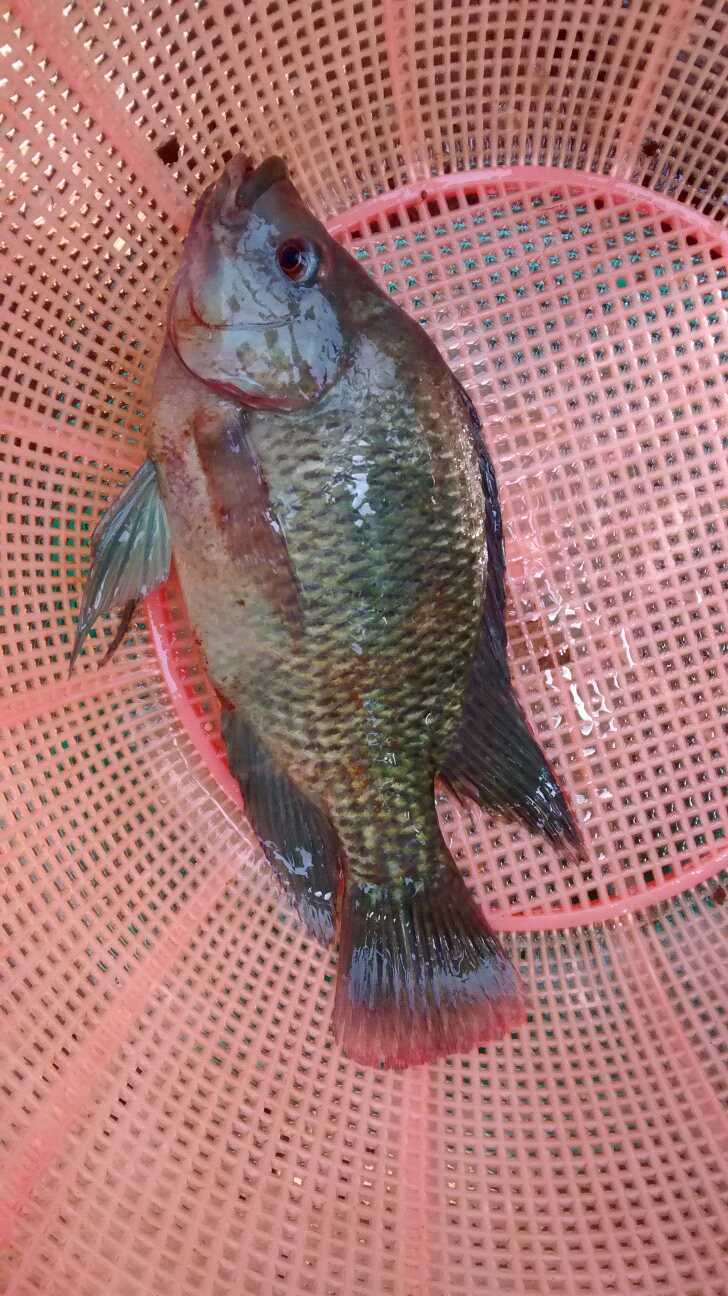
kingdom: Animalia
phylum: Chordata
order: Perciformes
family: Cichlidae
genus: Oreochromis
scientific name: Oreochromis mossambicus
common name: Mozambique tilapia
